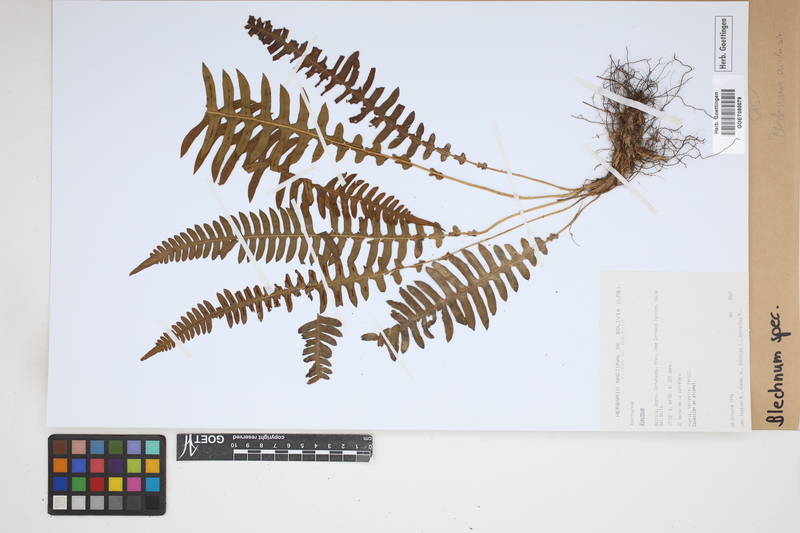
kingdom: Plantae
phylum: Tracheophyta
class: Polypodiopsida
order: Polypodiales
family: Blechnaceae
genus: Blechnum
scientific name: Blechnum
